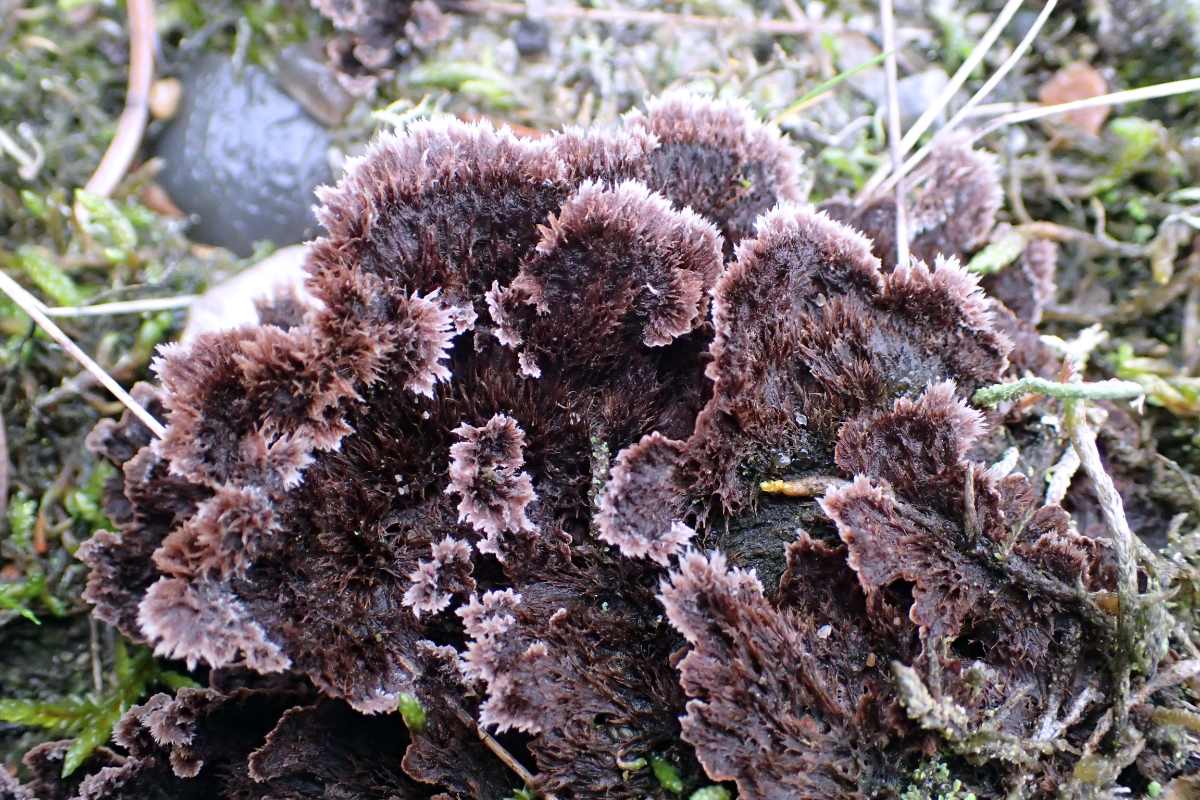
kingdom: Fungi
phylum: Basidiomycota
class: Agaricomycetes
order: Thelephorales
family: Thelephoraceae
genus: Thelephora
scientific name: Thelephora terrestris
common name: fliget frynsesvamp
